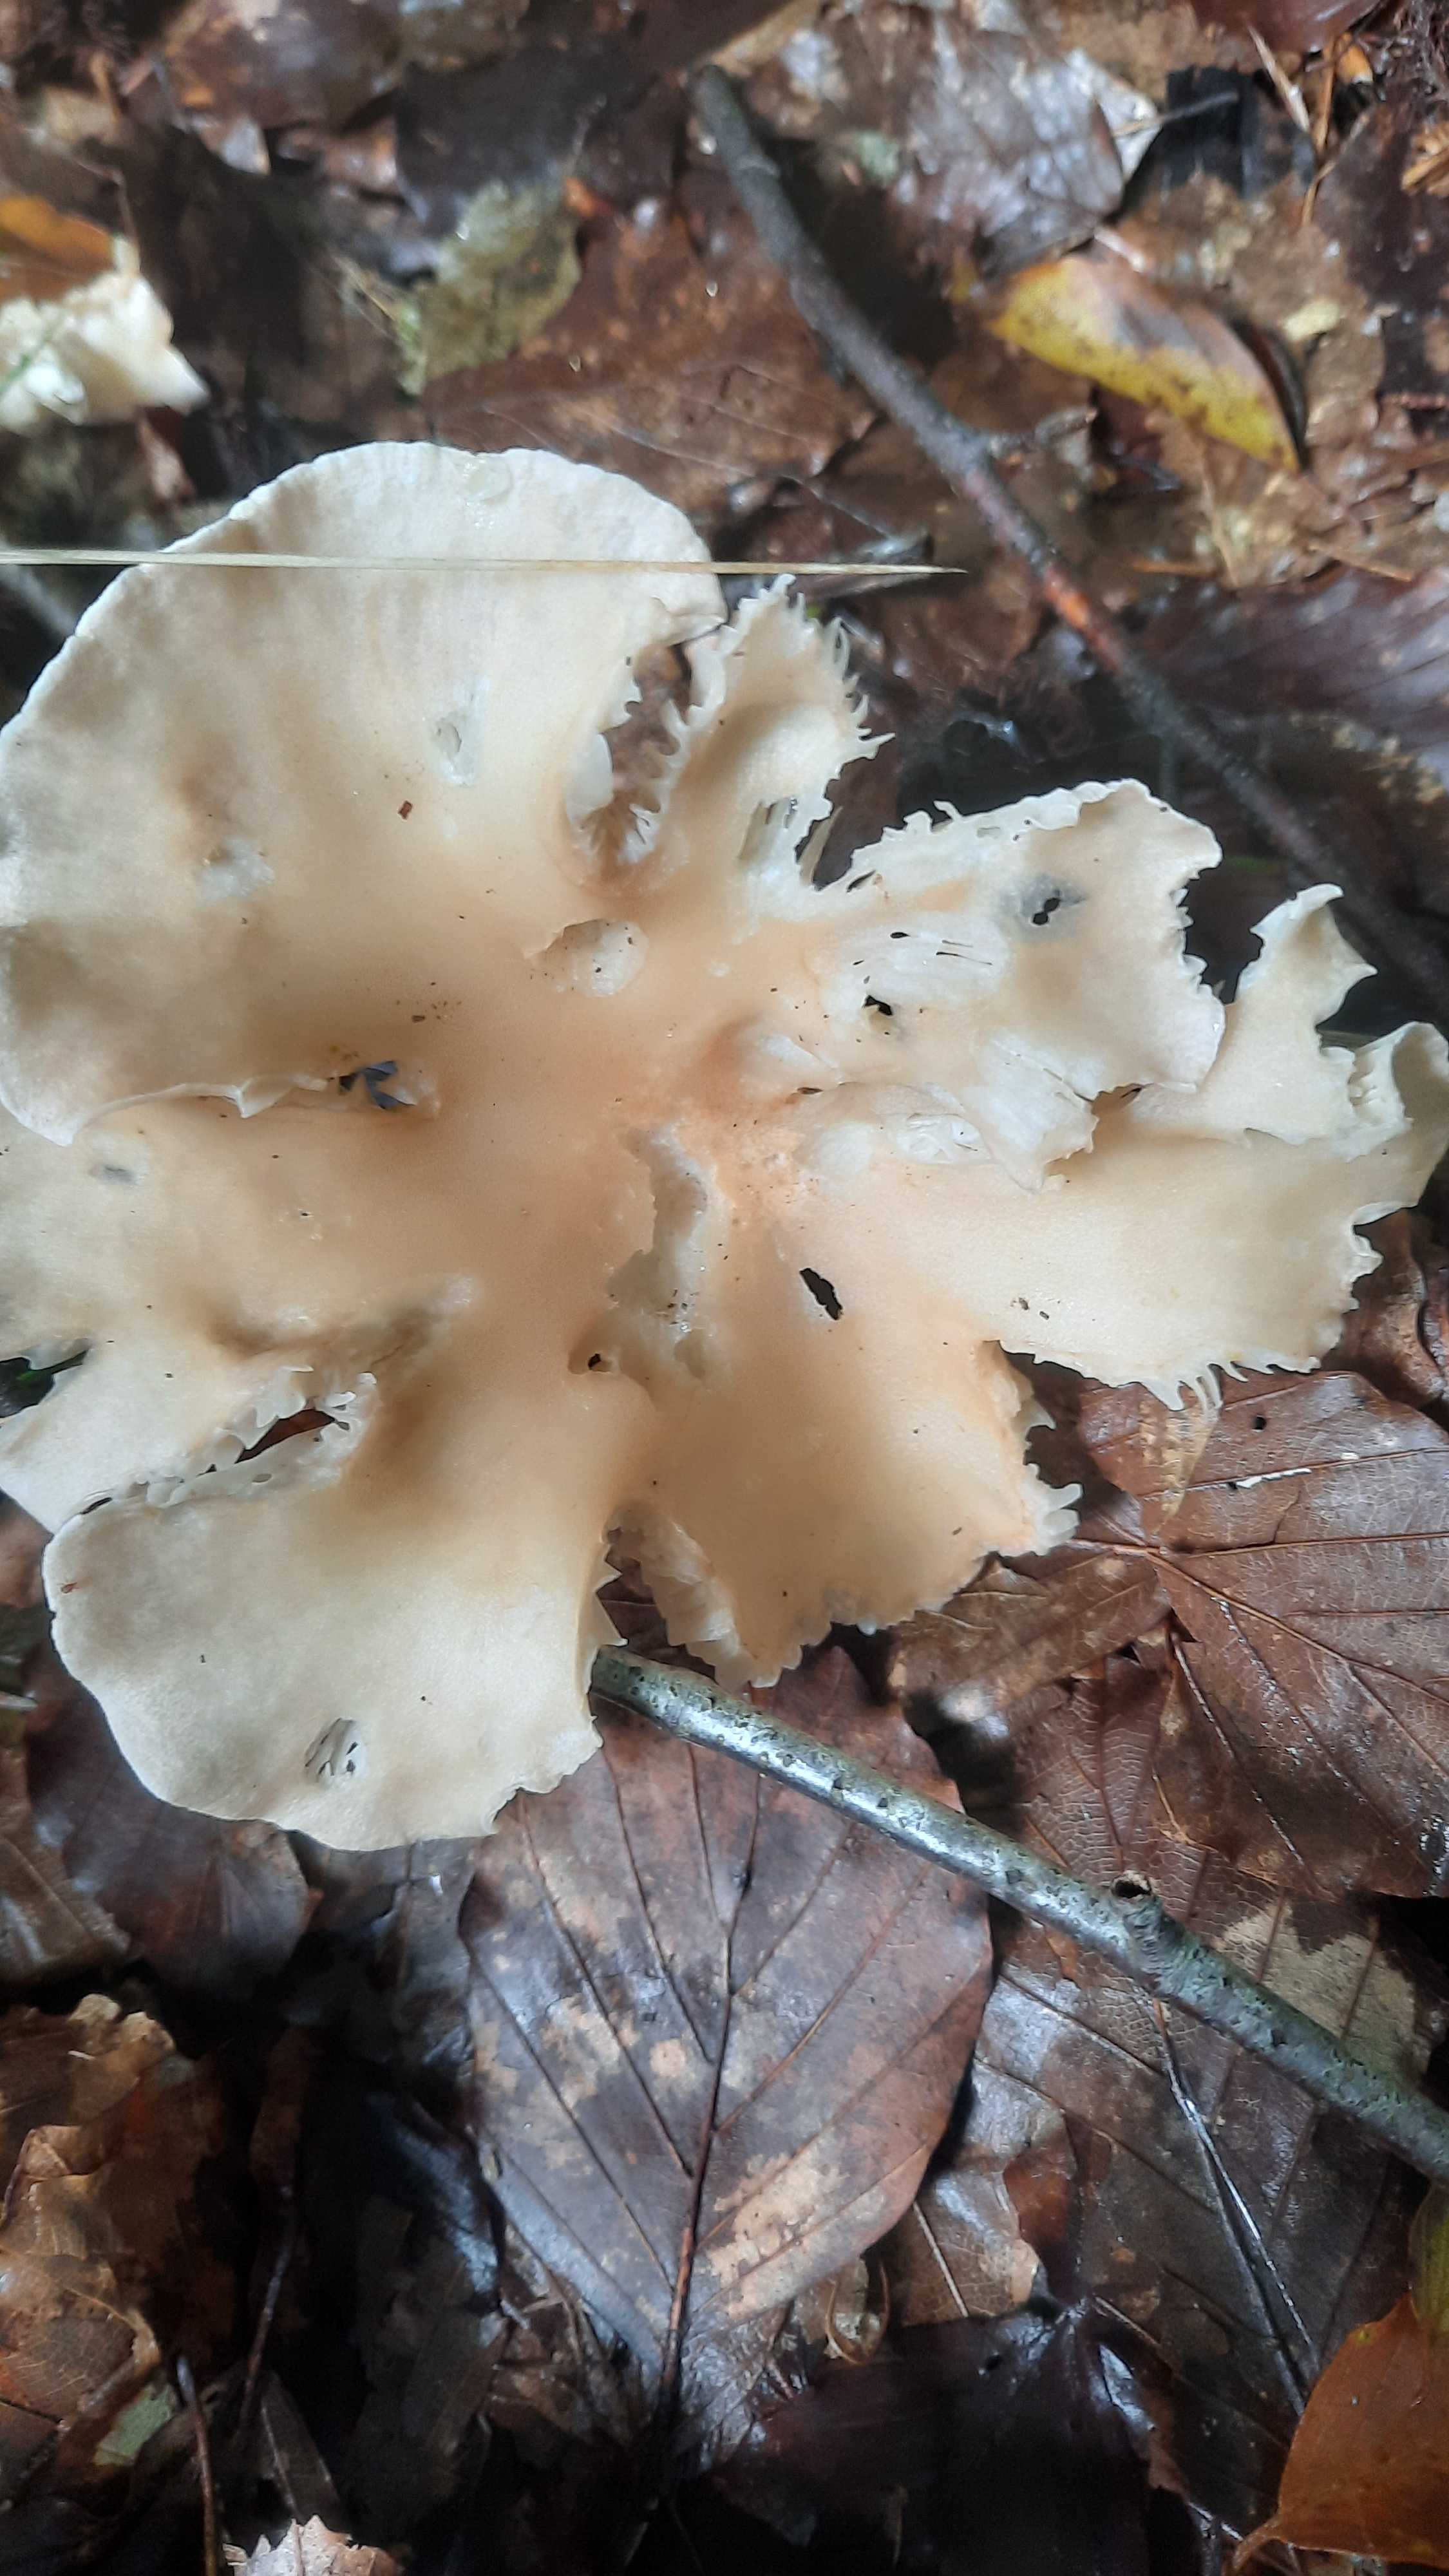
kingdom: Fungi
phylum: Basidiomycota
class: Agaricomycetes
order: Agaricales
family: Tricholomataceae
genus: Infundibulicybe
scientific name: Infundibulicybe gibba
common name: almindelig tragthat
